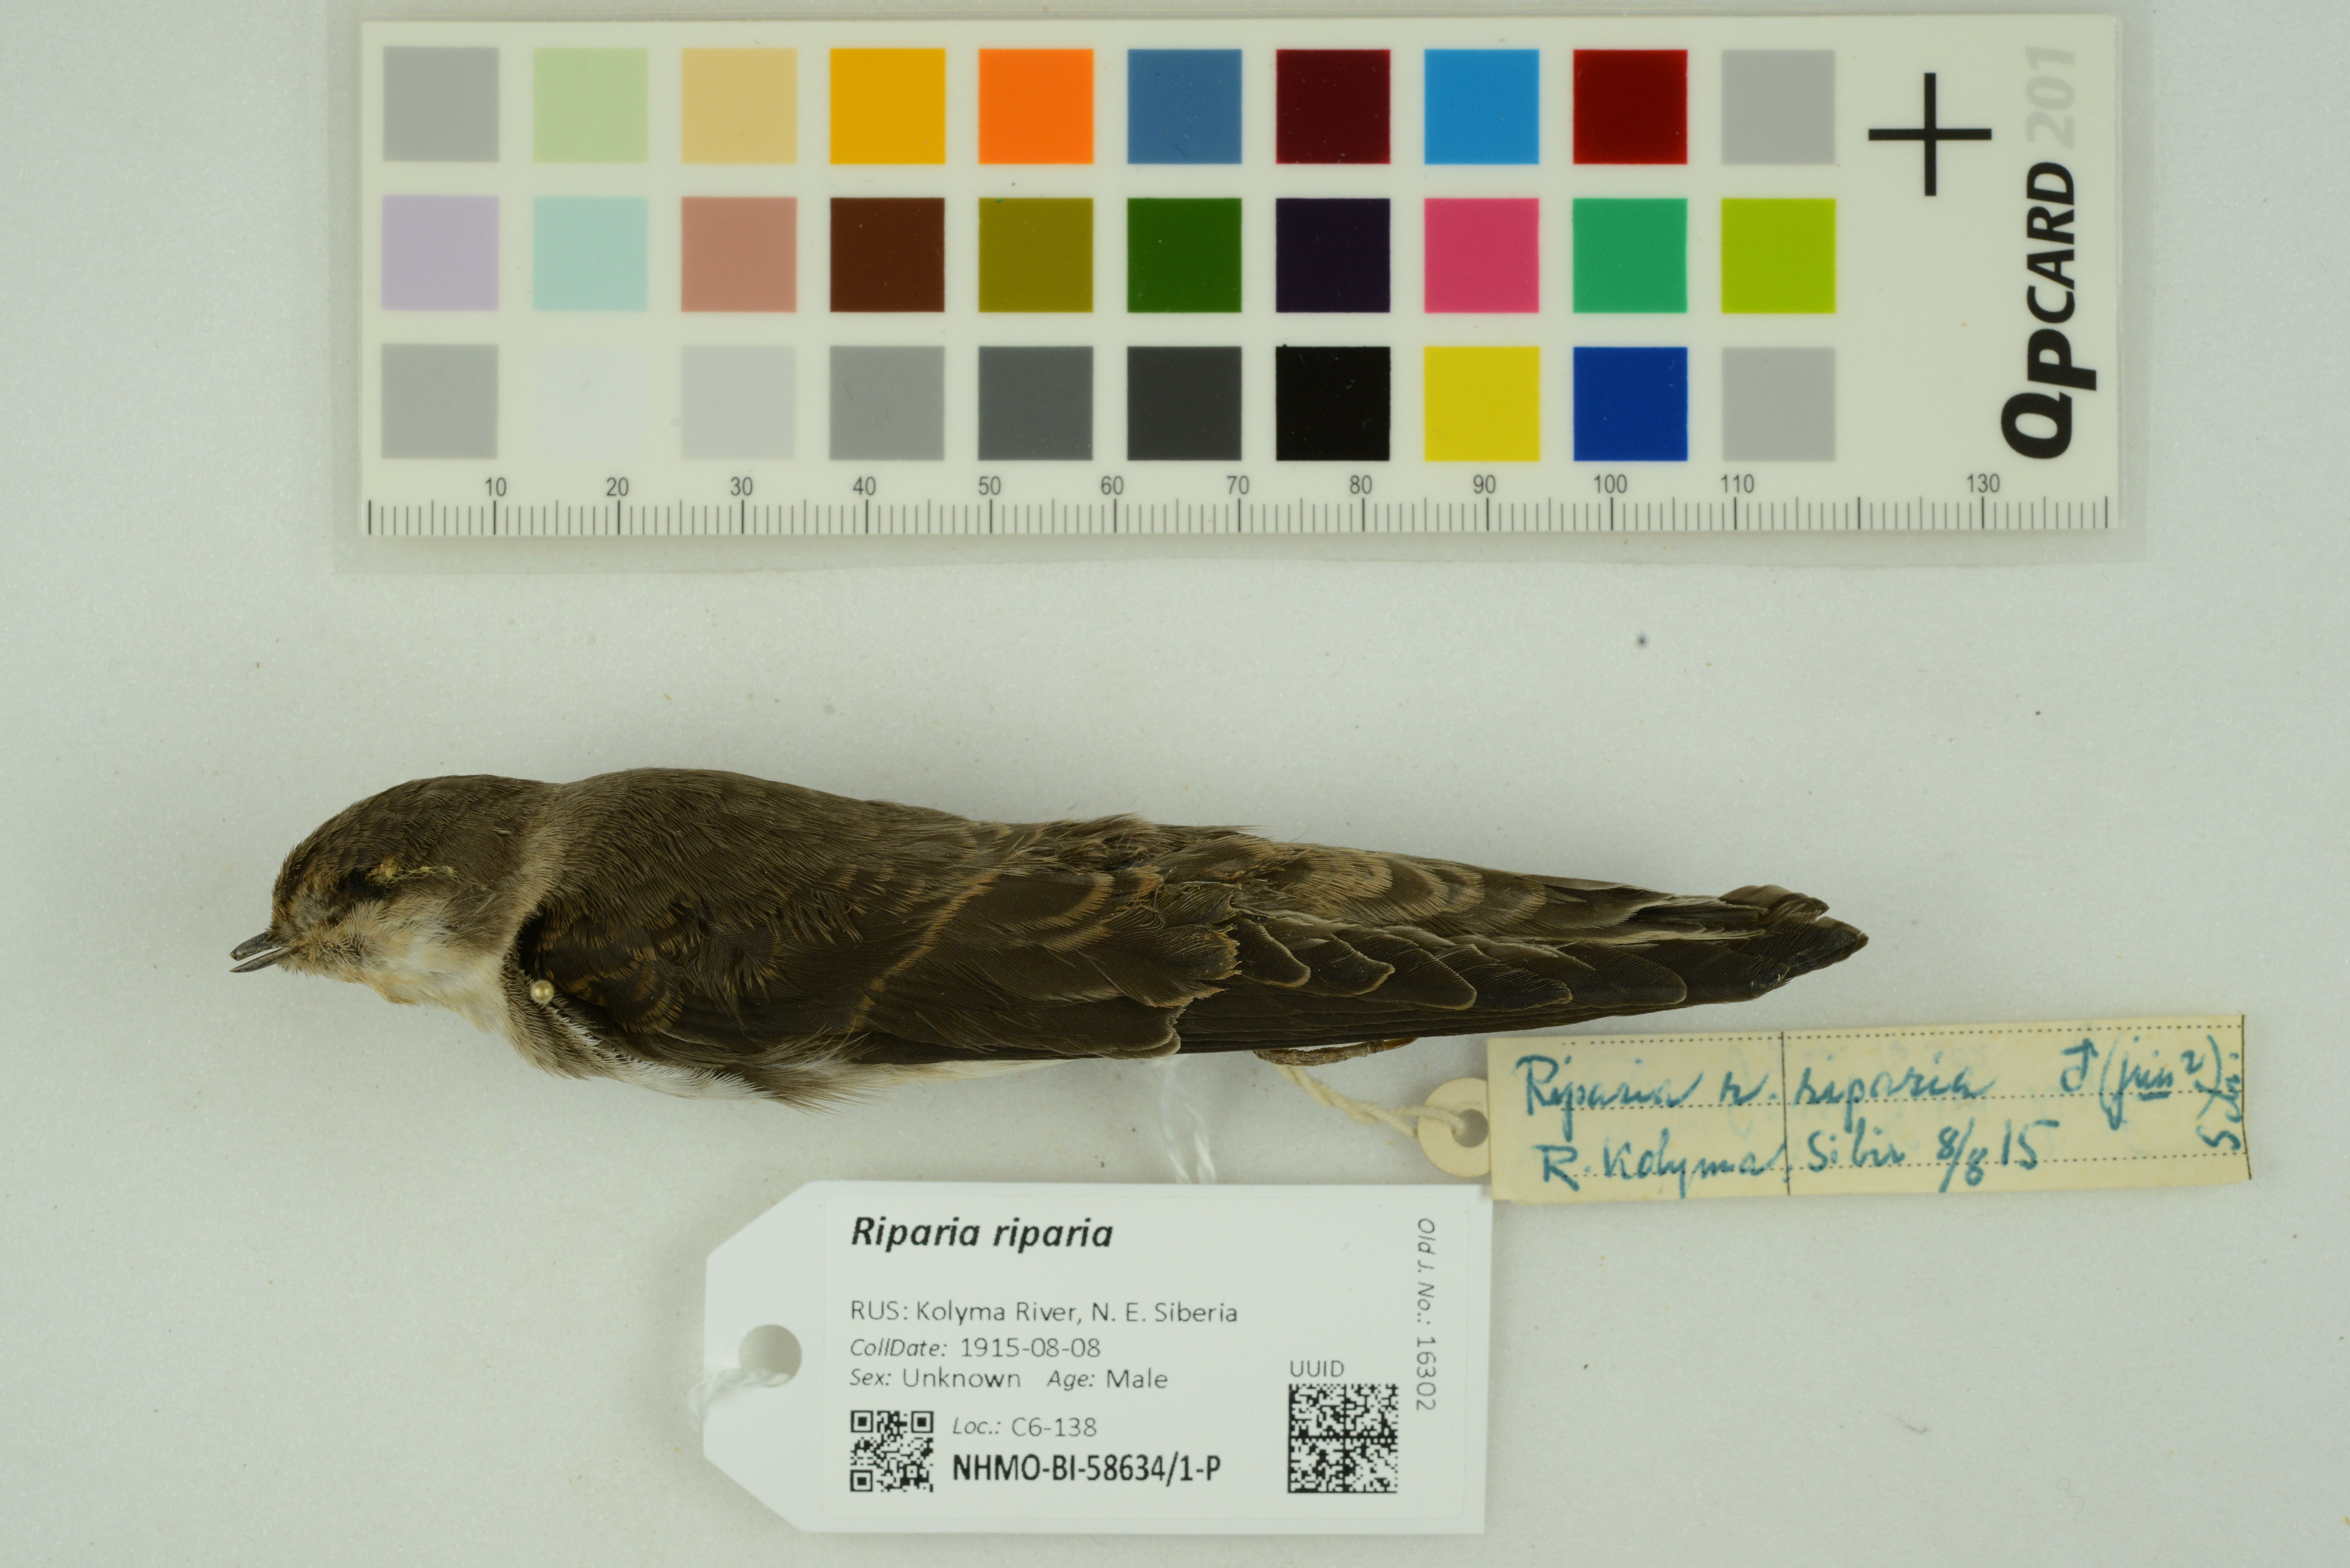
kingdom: Animalia
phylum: Chordata
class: Aves
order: Passeriformes
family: Hirundinidae
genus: Riparia
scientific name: Riparia riparia
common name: Sand martin
